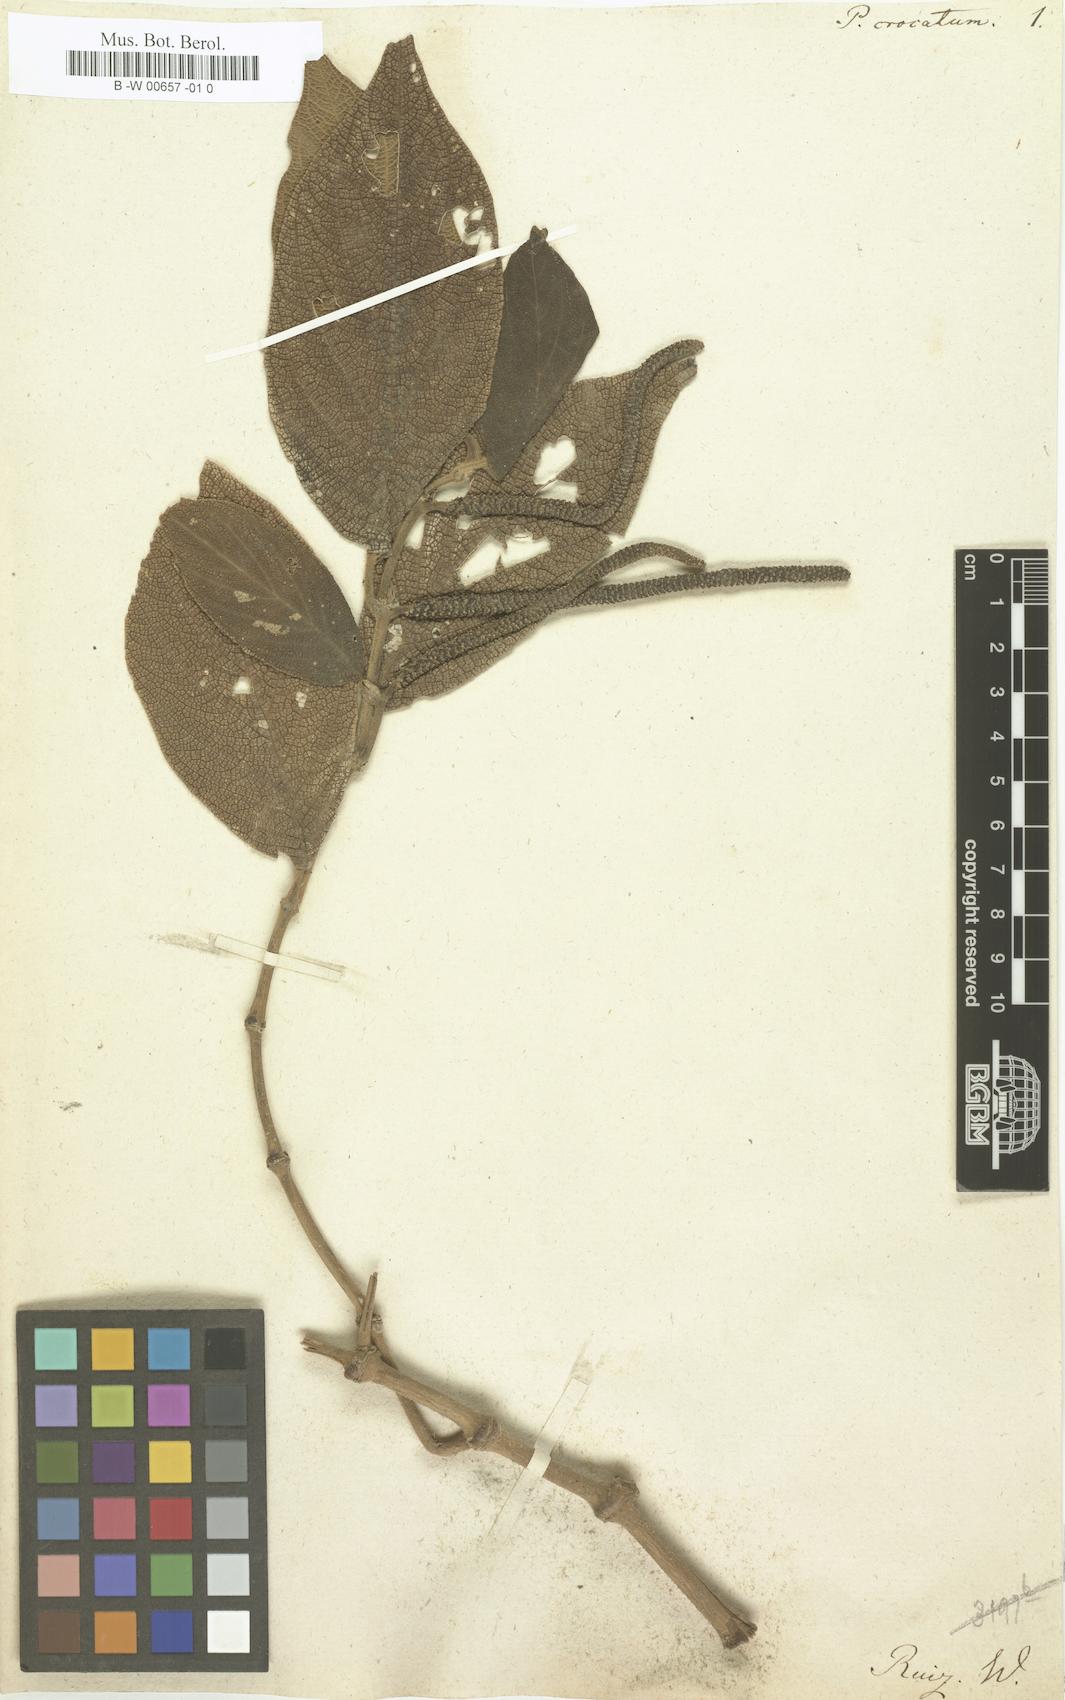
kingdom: Plantae
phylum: Tracheophyta
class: Magnoliopsida
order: Piperales
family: Piperaceae
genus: Piper
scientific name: Piper crocatum
